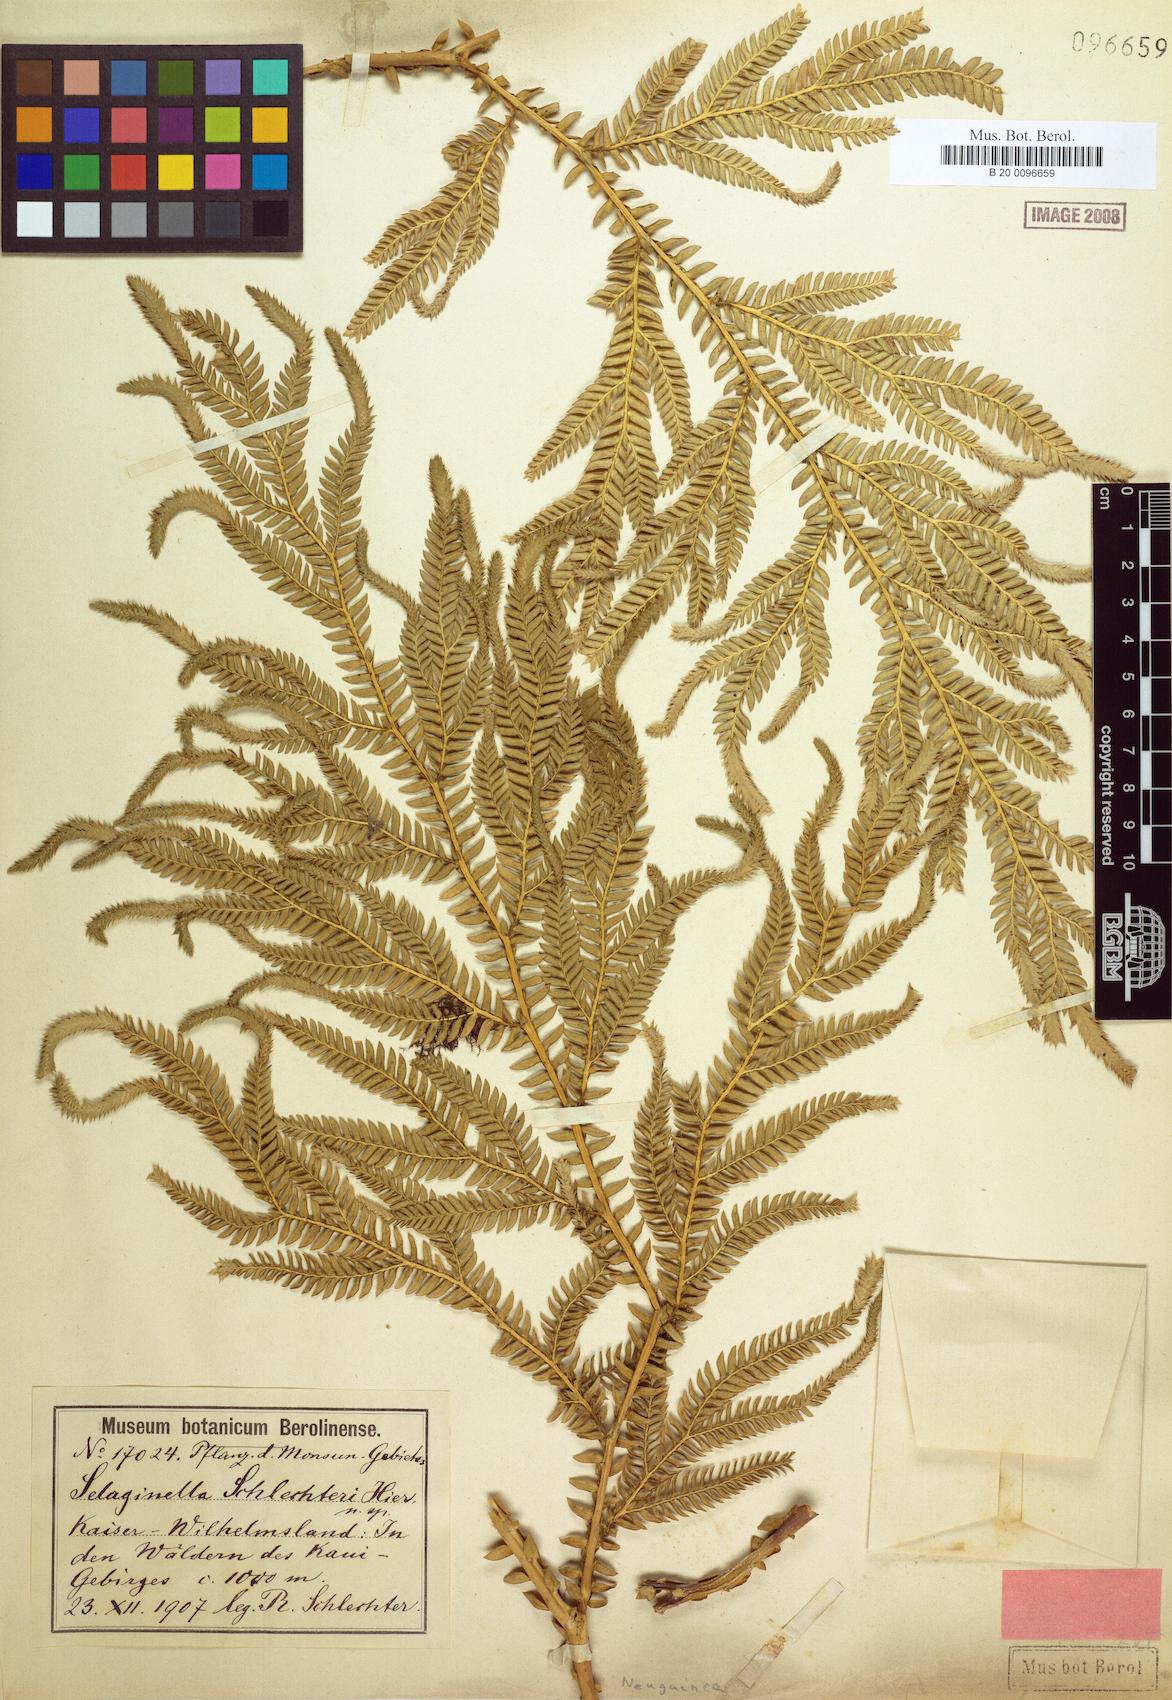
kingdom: Plantae
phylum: Tracheophyta
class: Lycopodiopsida
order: Selaginellales
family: Selaginellaceae
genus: Selaginella
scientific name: Selaginella schlechteri
